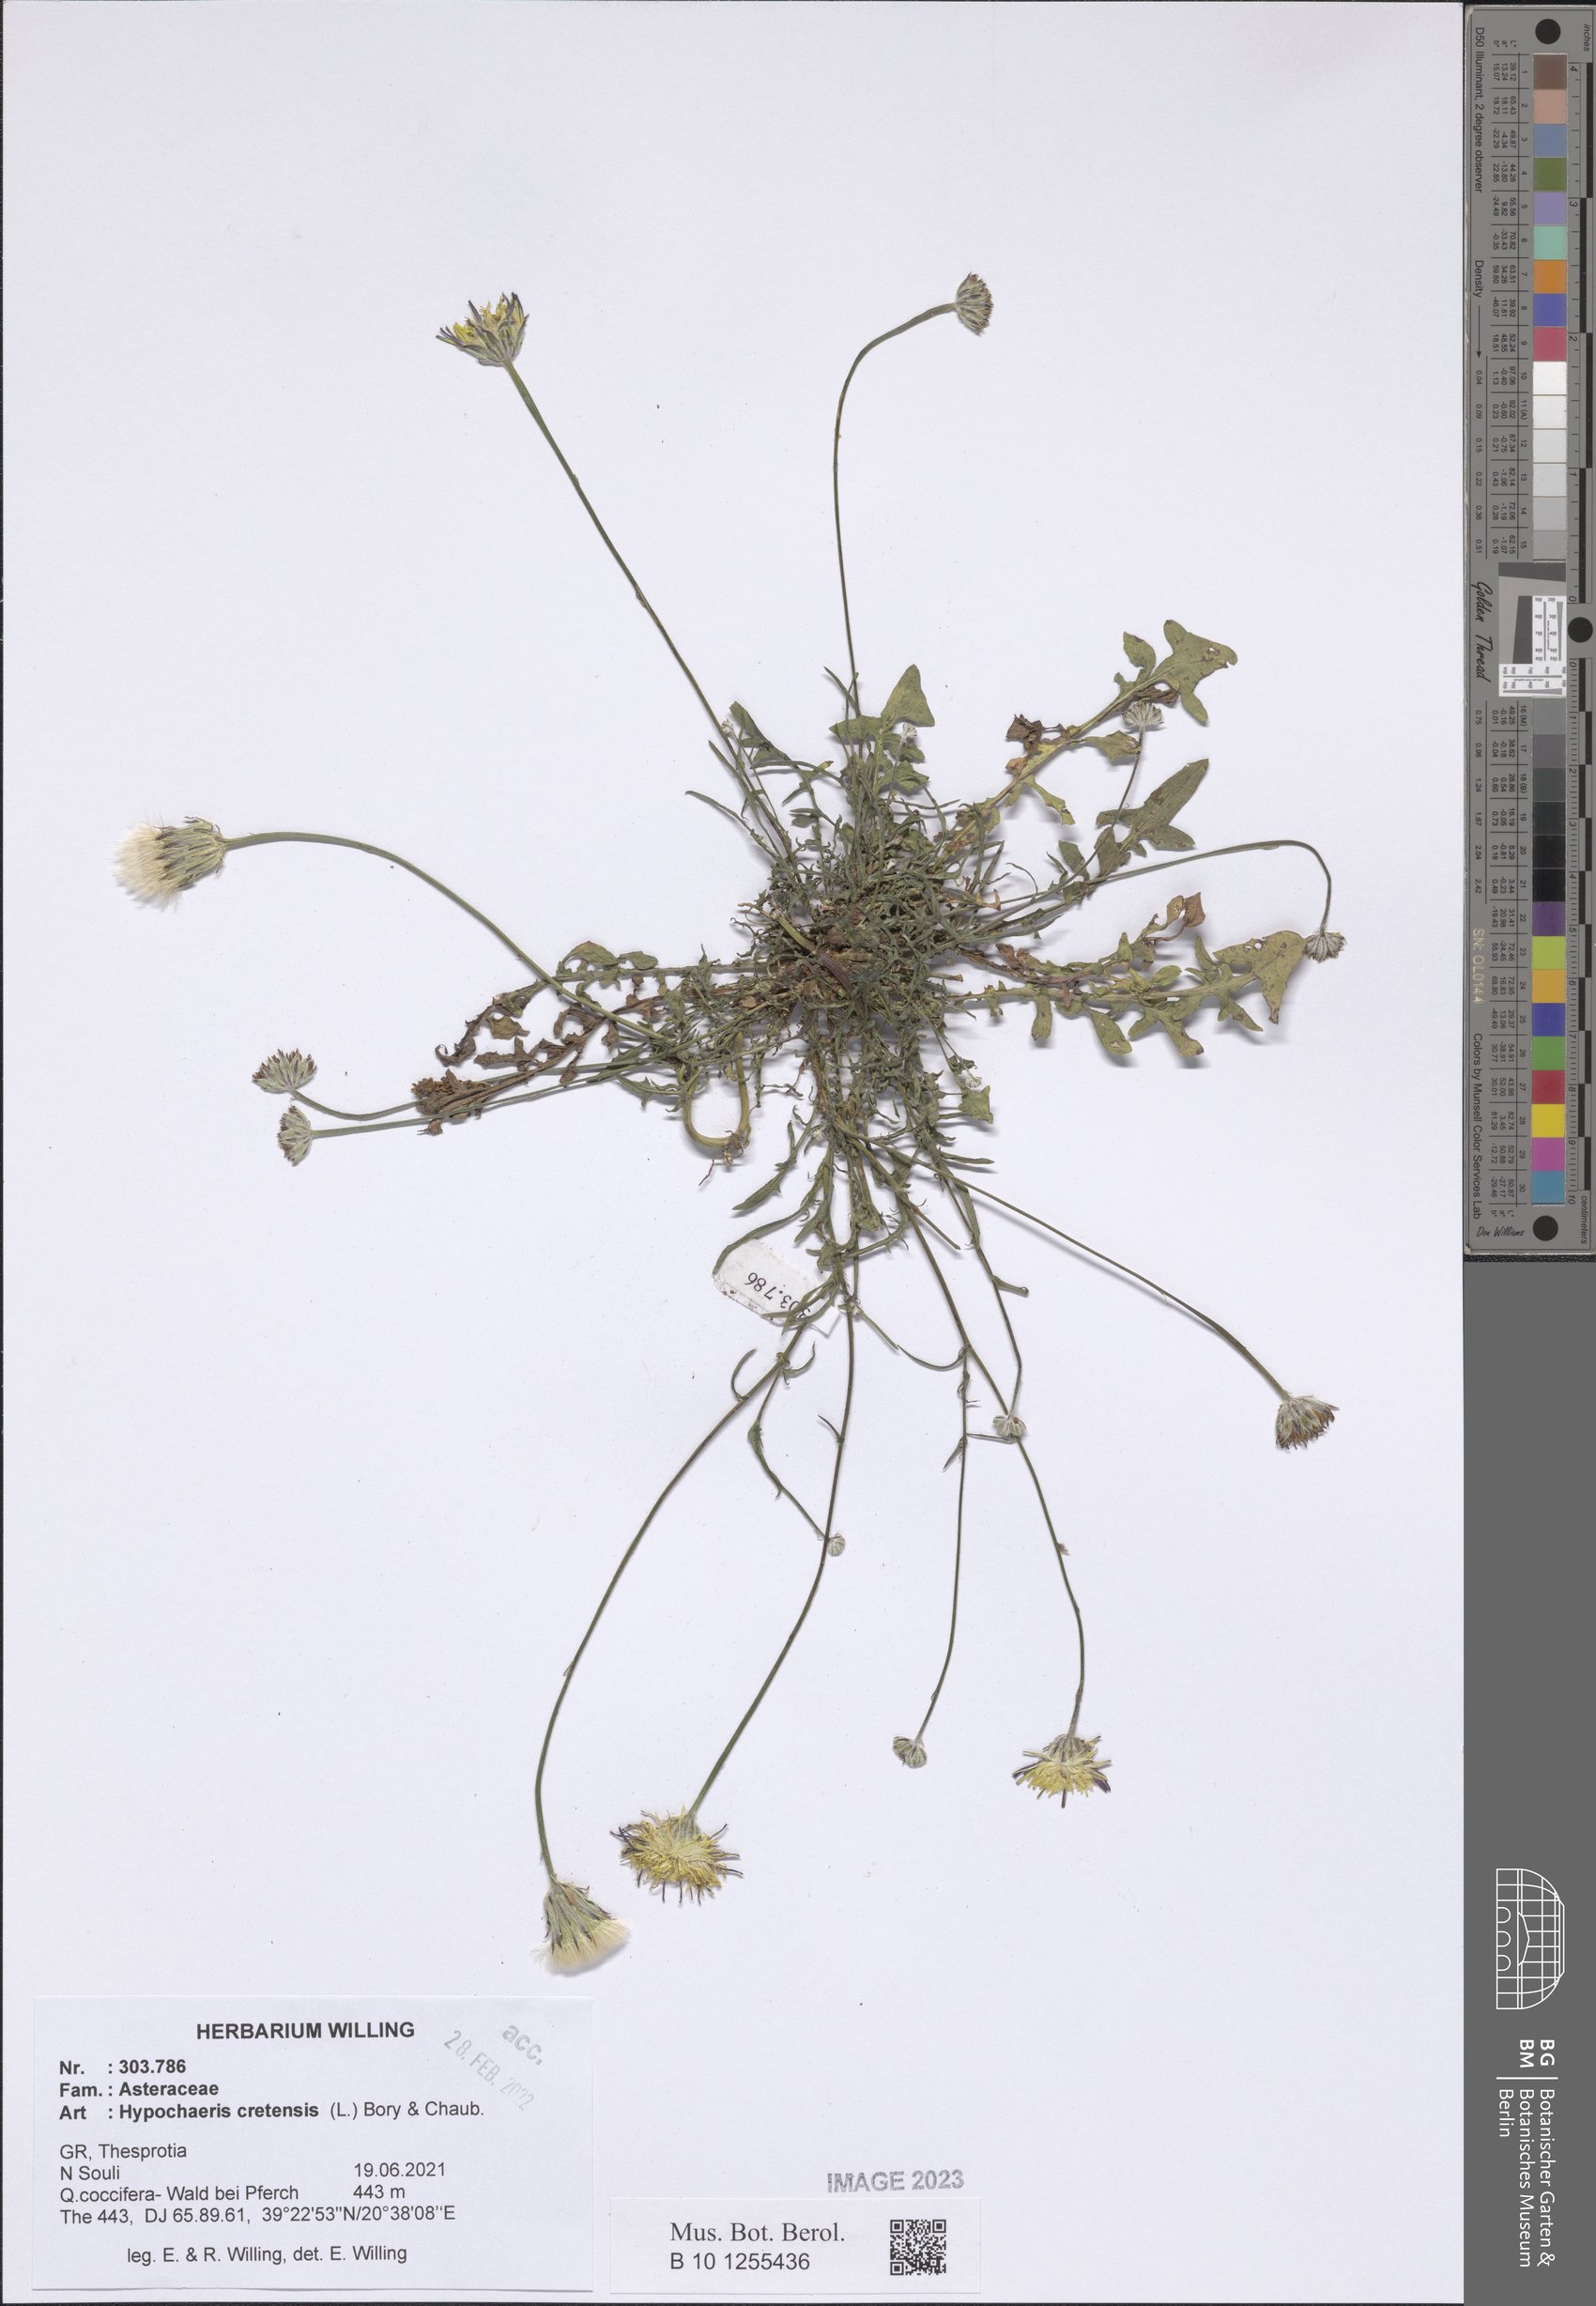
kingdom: Plantae
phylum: Tracheophyta
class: Magnoliopsida
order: Asterales
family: Asteraceae
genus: Hypochaeris
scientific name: Hypochaeris cretensis
